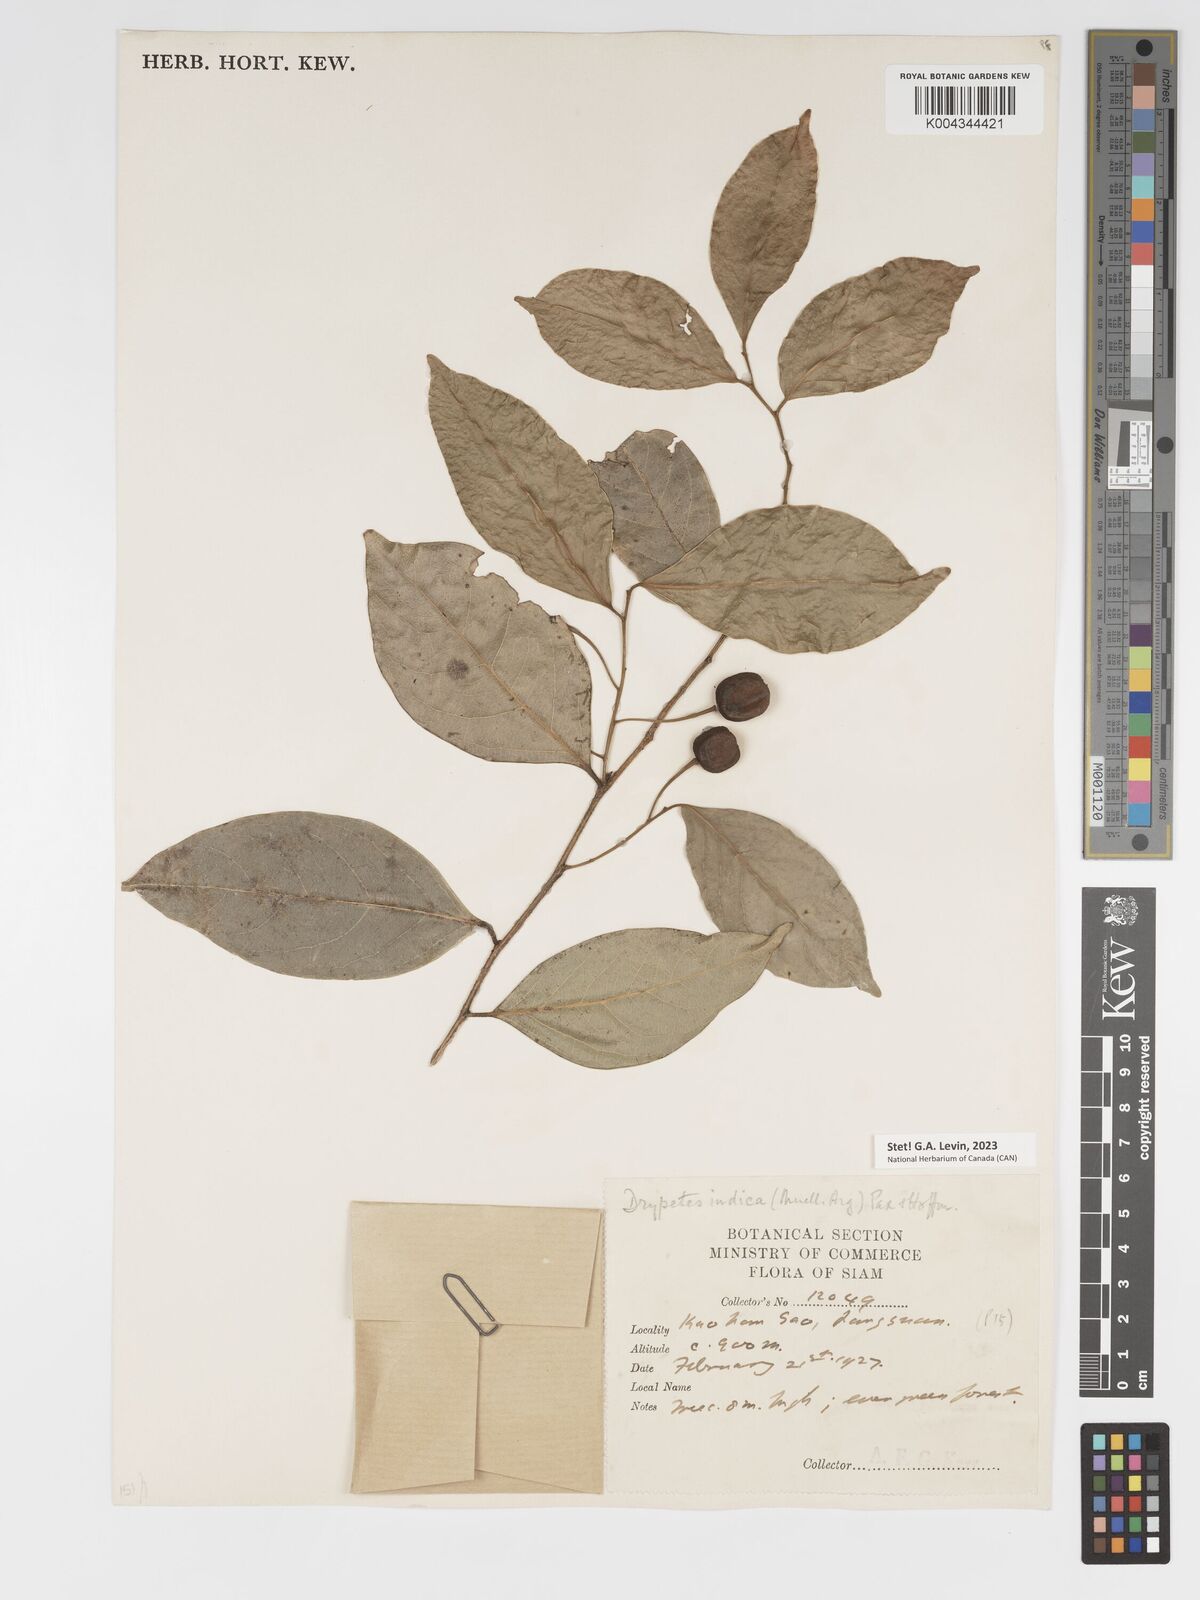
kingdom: Plantae
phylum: Tracheophyta
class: Magnoliopsida
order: Malpighiales
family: Putranjivaceae
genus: Drypetes
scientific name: Drypetes indica
